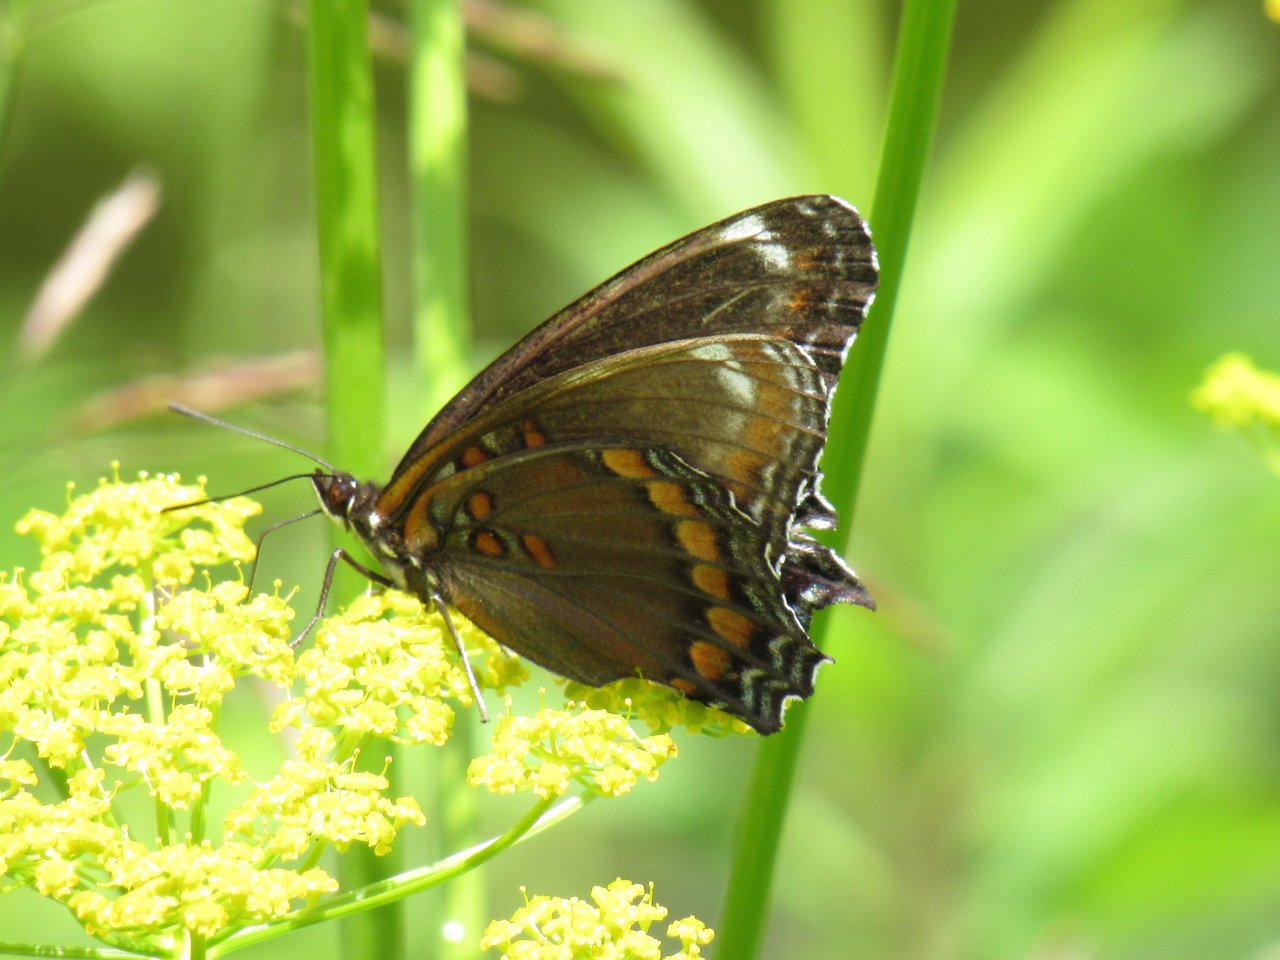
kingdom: Animalia
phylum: Arthropoda
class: Insecta
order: Lepidoptera
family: Nymphalidae
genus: Limenitis
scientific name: Limenitis arthemis
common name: Red-spotted Admiral
